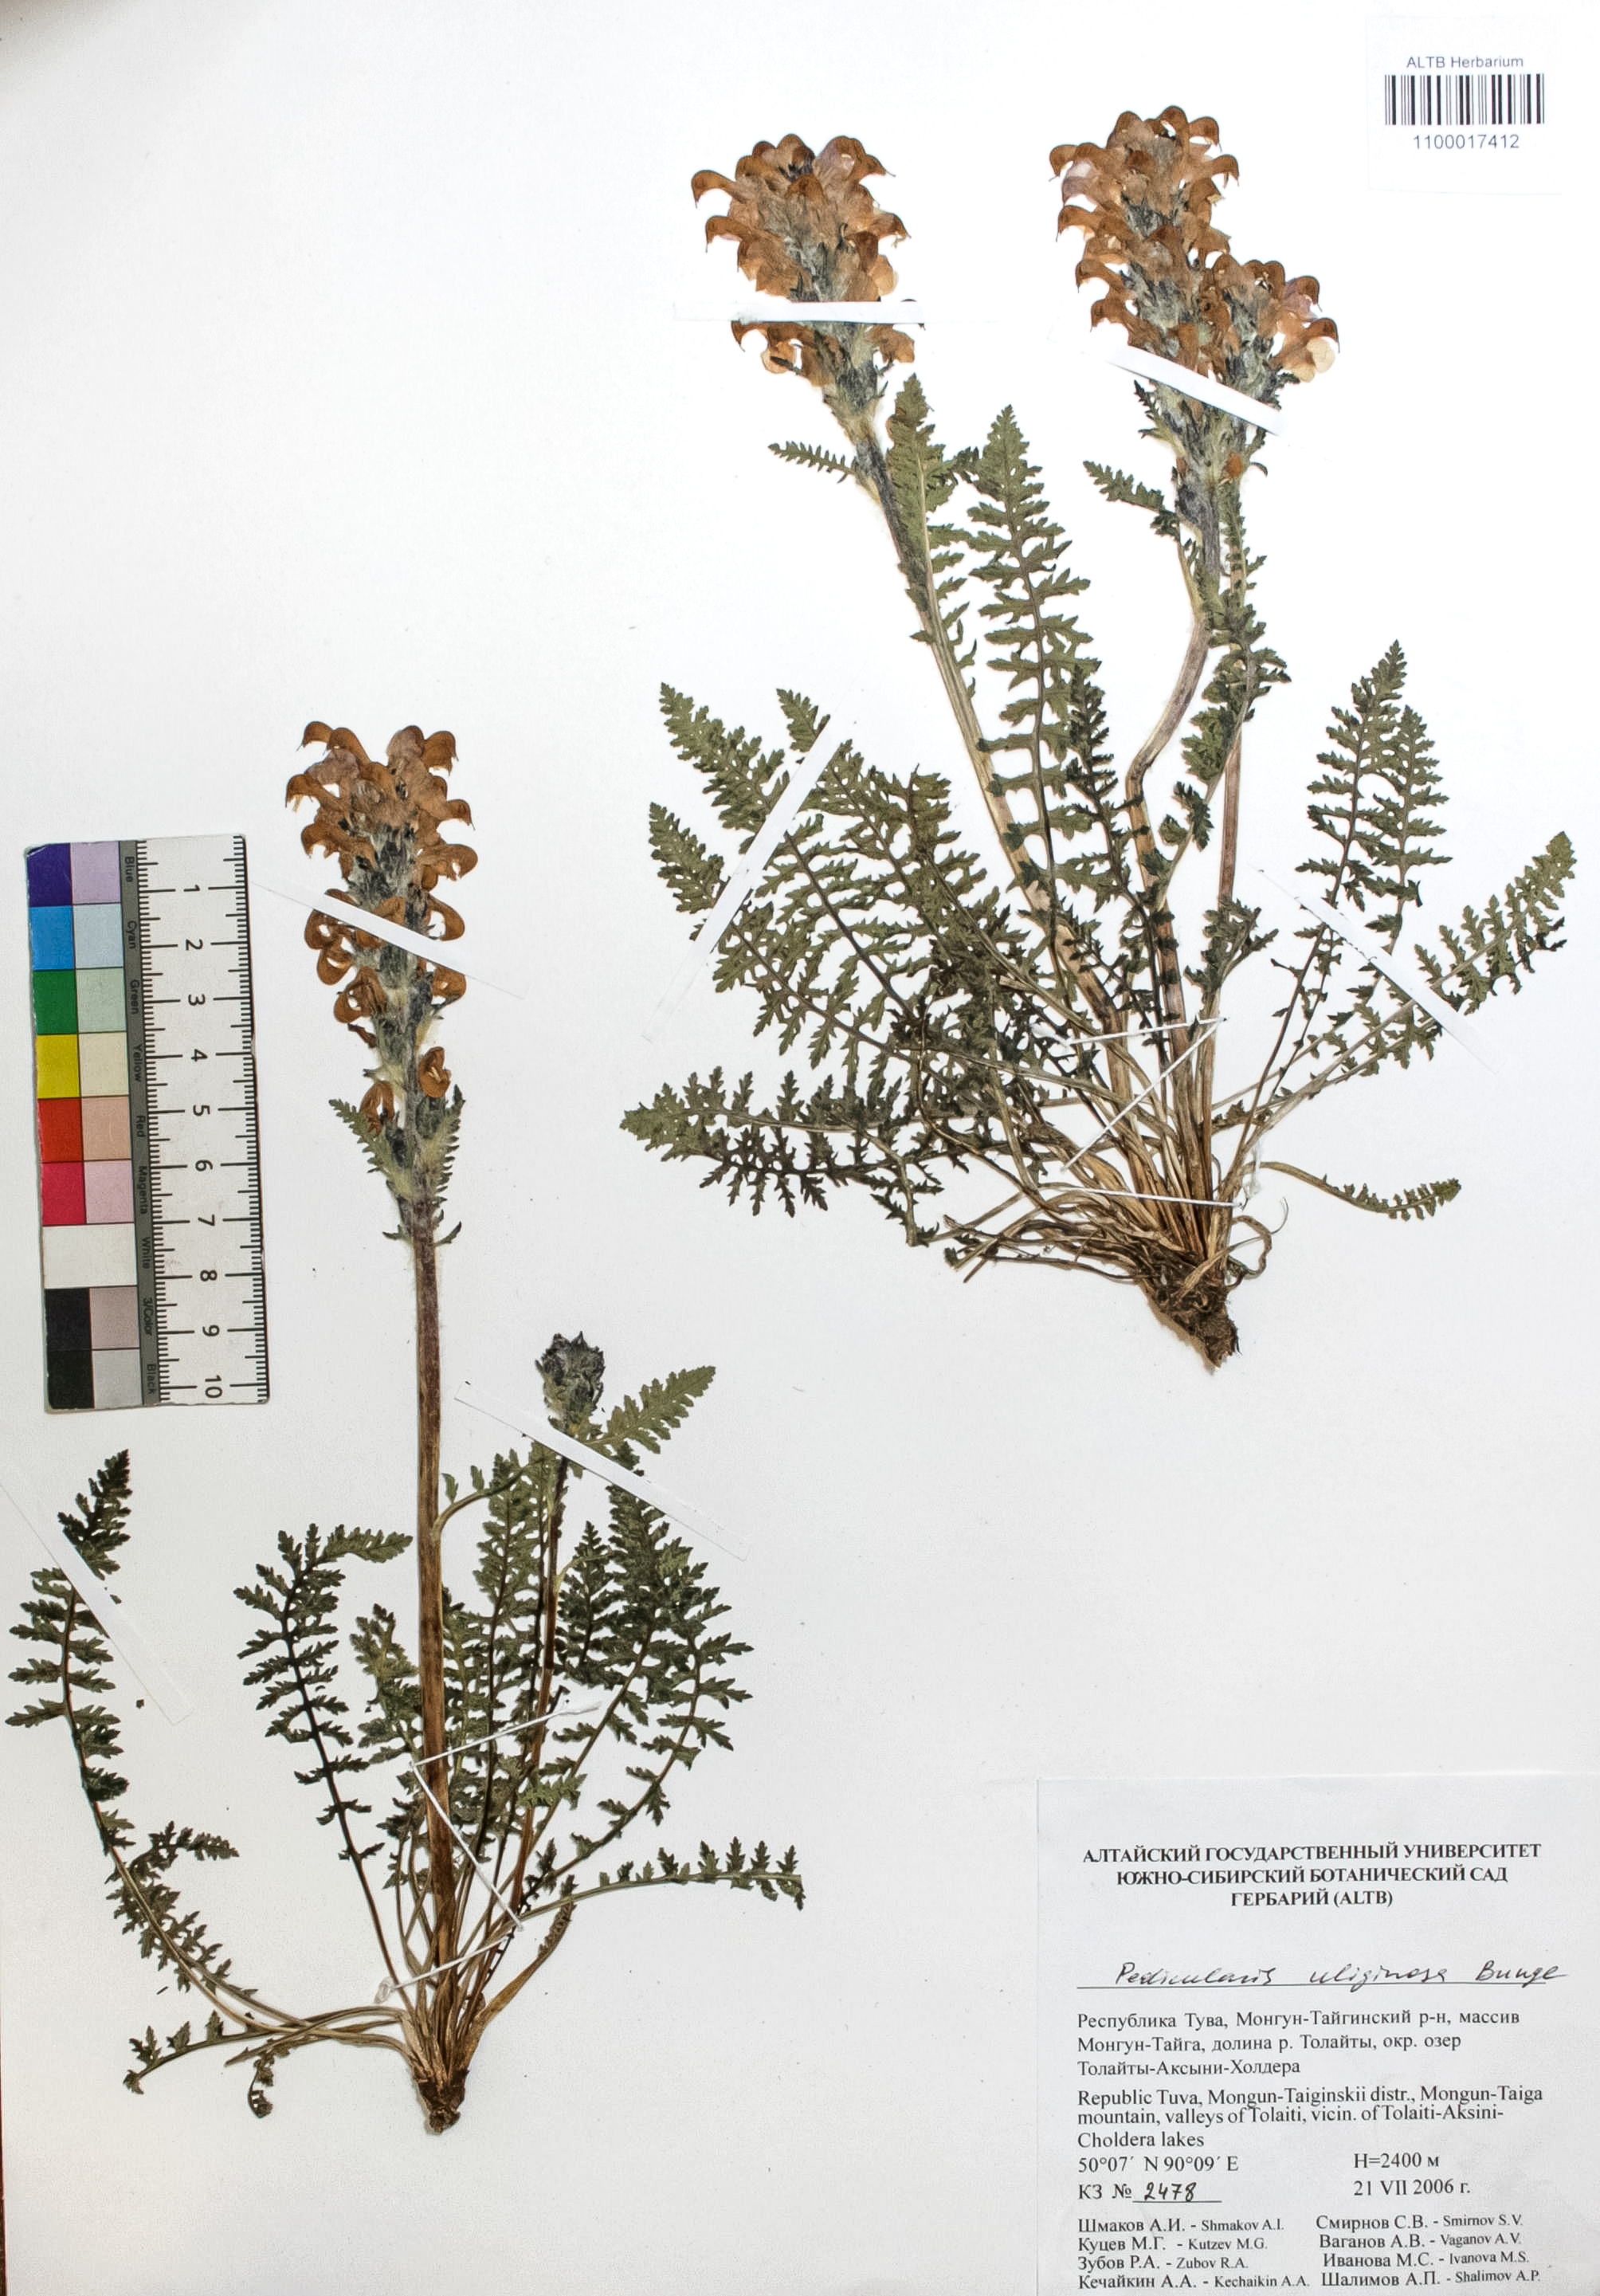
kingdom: Plantae
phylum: Tracheophyta
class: Magnoliopsida
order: Lamiales
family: Orobanchaceae
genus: Pedicularis
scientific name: Pedicularis uliginosa
